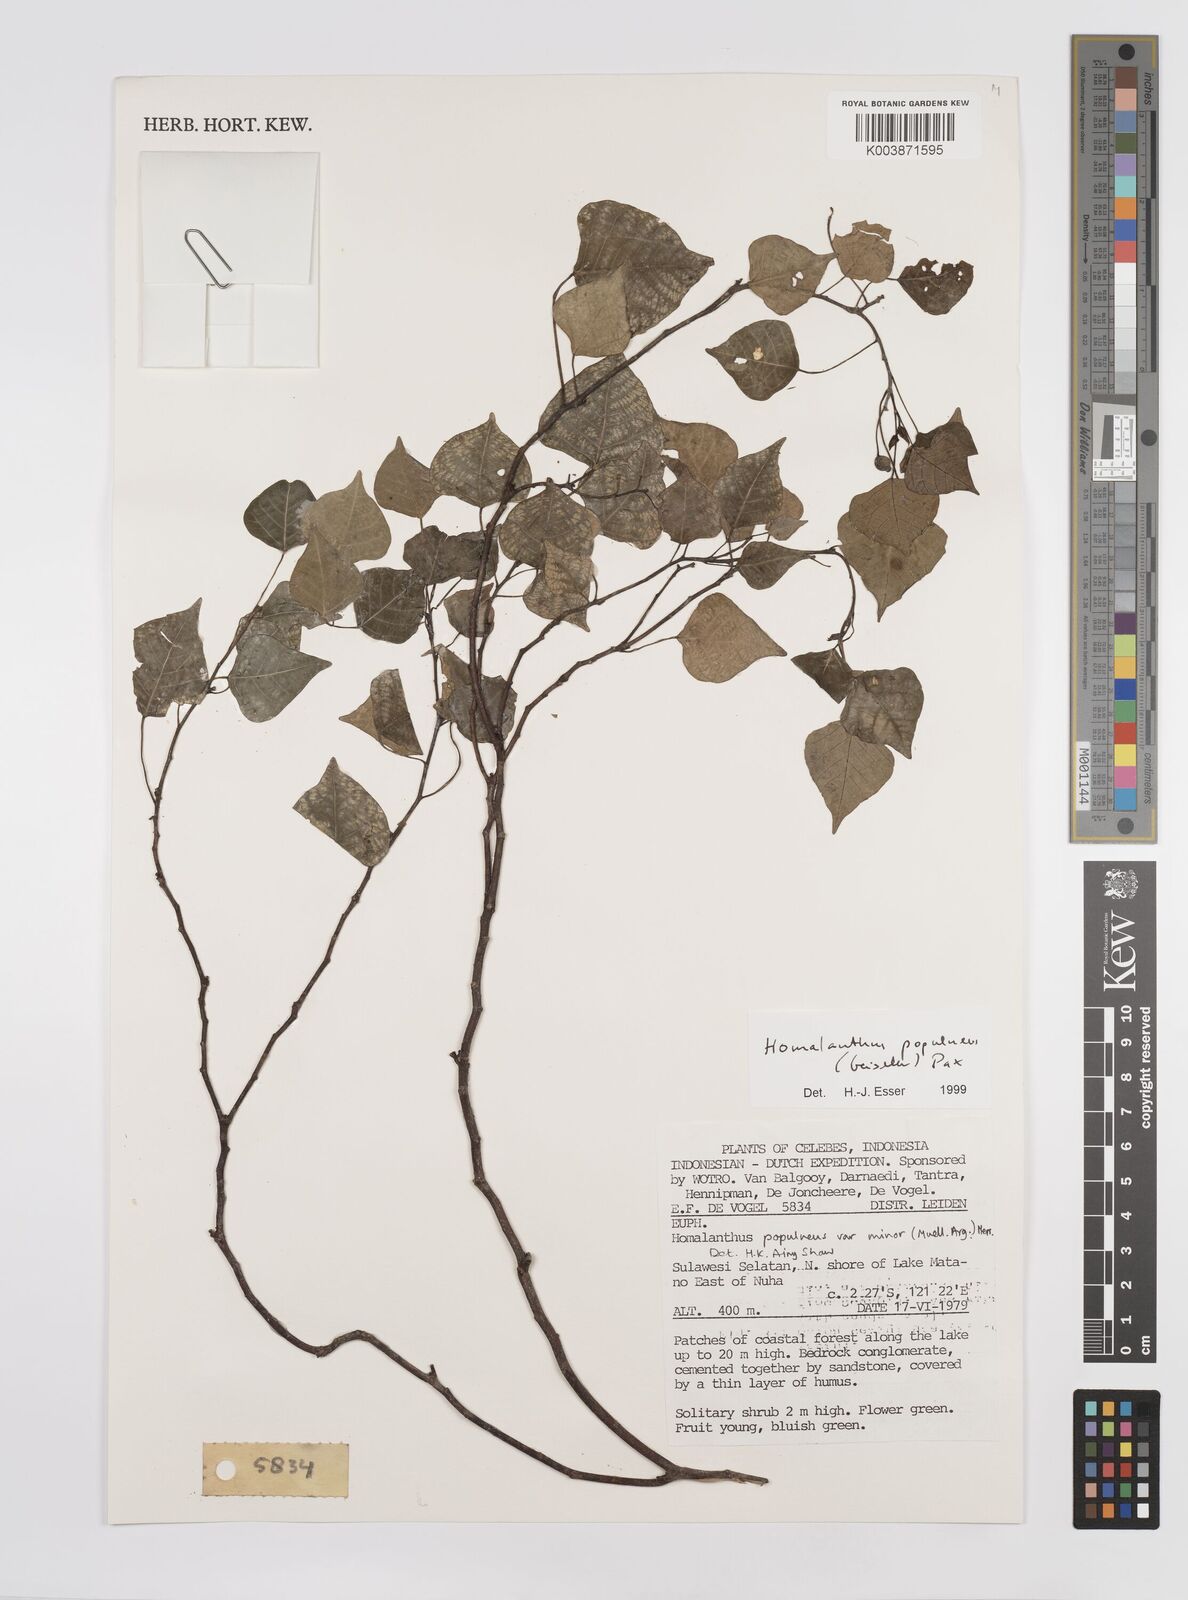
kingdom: Plantae
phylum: Tracheophyta
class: Magnoliopsida
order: Malpighiales
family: Euphorbiaceae
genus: Homalanthus
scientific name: Homalanthus populneus
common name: Spurge
